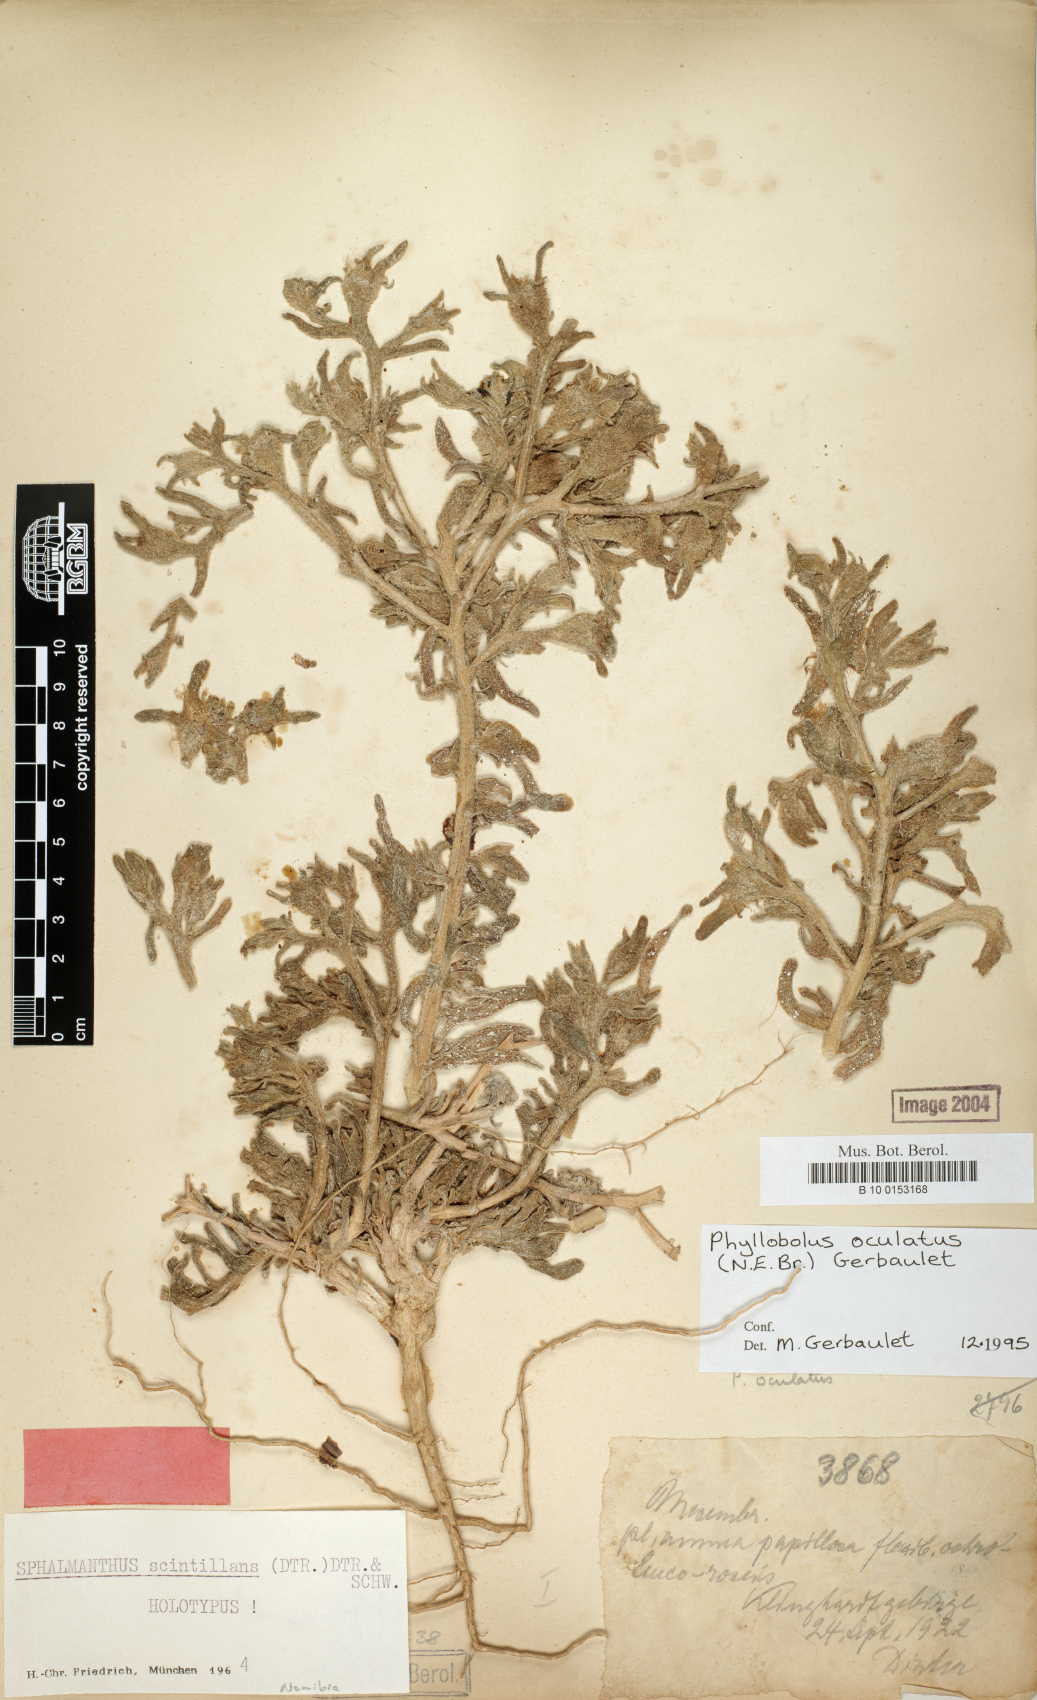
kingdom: Plantae
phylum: Tracheophyta
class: Magnoliopsida
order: Caryophyllales
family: Aizoaceae
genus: Mesembryanthemum
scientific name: Mesembryanthemum oculatum
